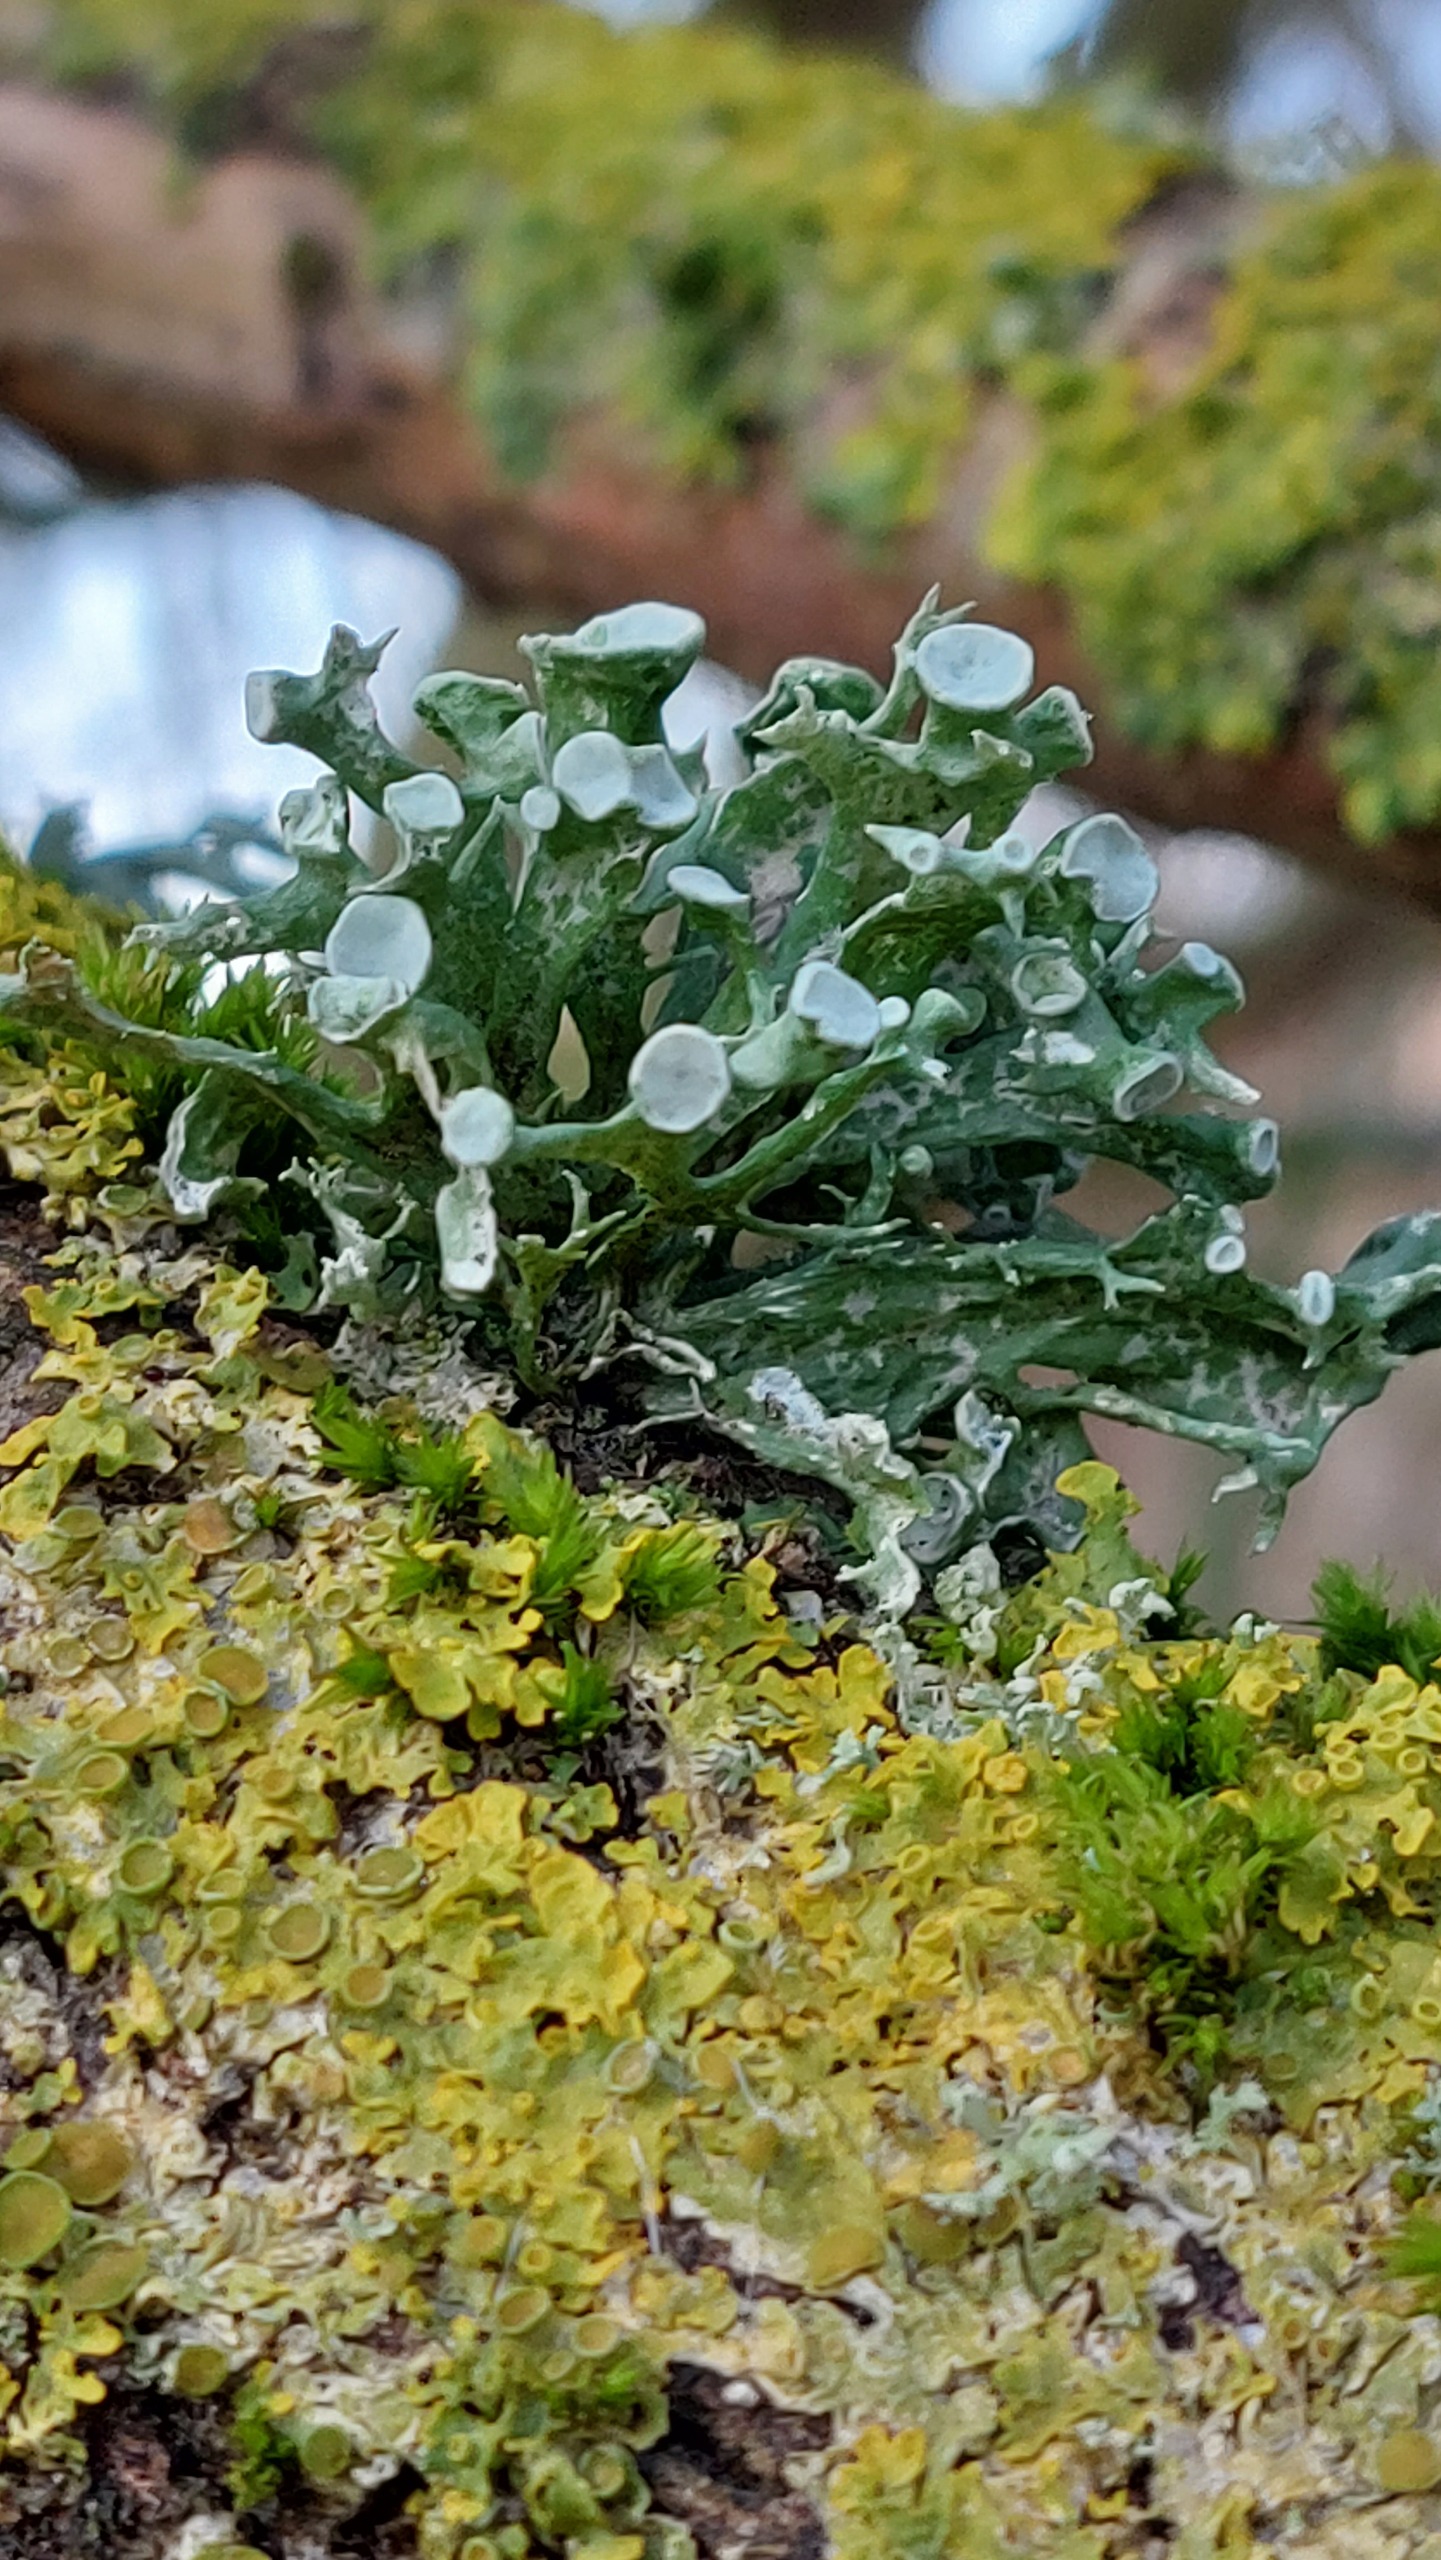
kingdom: Fungi
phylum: Ascomycota
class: Lecanoromycetes
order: Lecanorales
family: Ramalinaceae
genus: Ramalina
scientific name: Ramalina fastigiata
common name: Tue-grenlav
